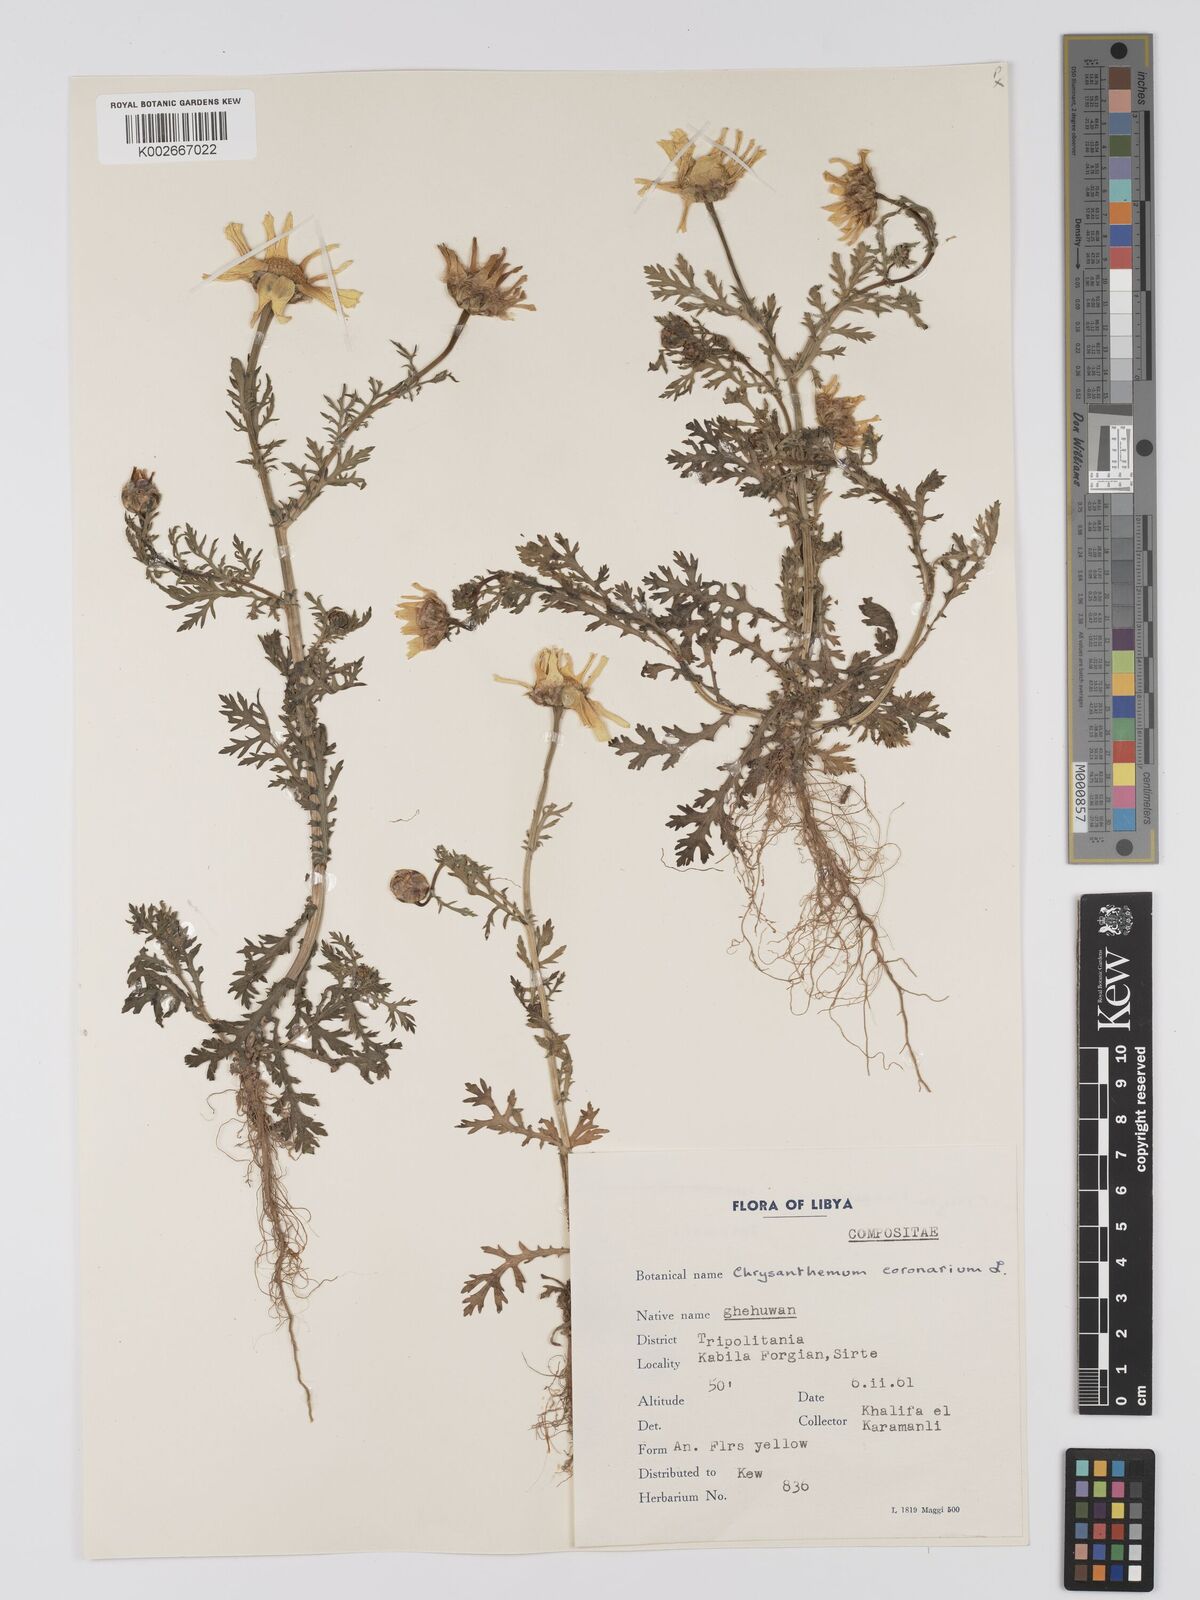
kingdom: Plantae
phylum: Tracheophyta
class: Magnoliopsida
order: Asterales
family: Asteraceae
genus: Glebionis
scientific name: Glebionis coronaria
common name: Crowndaisy
